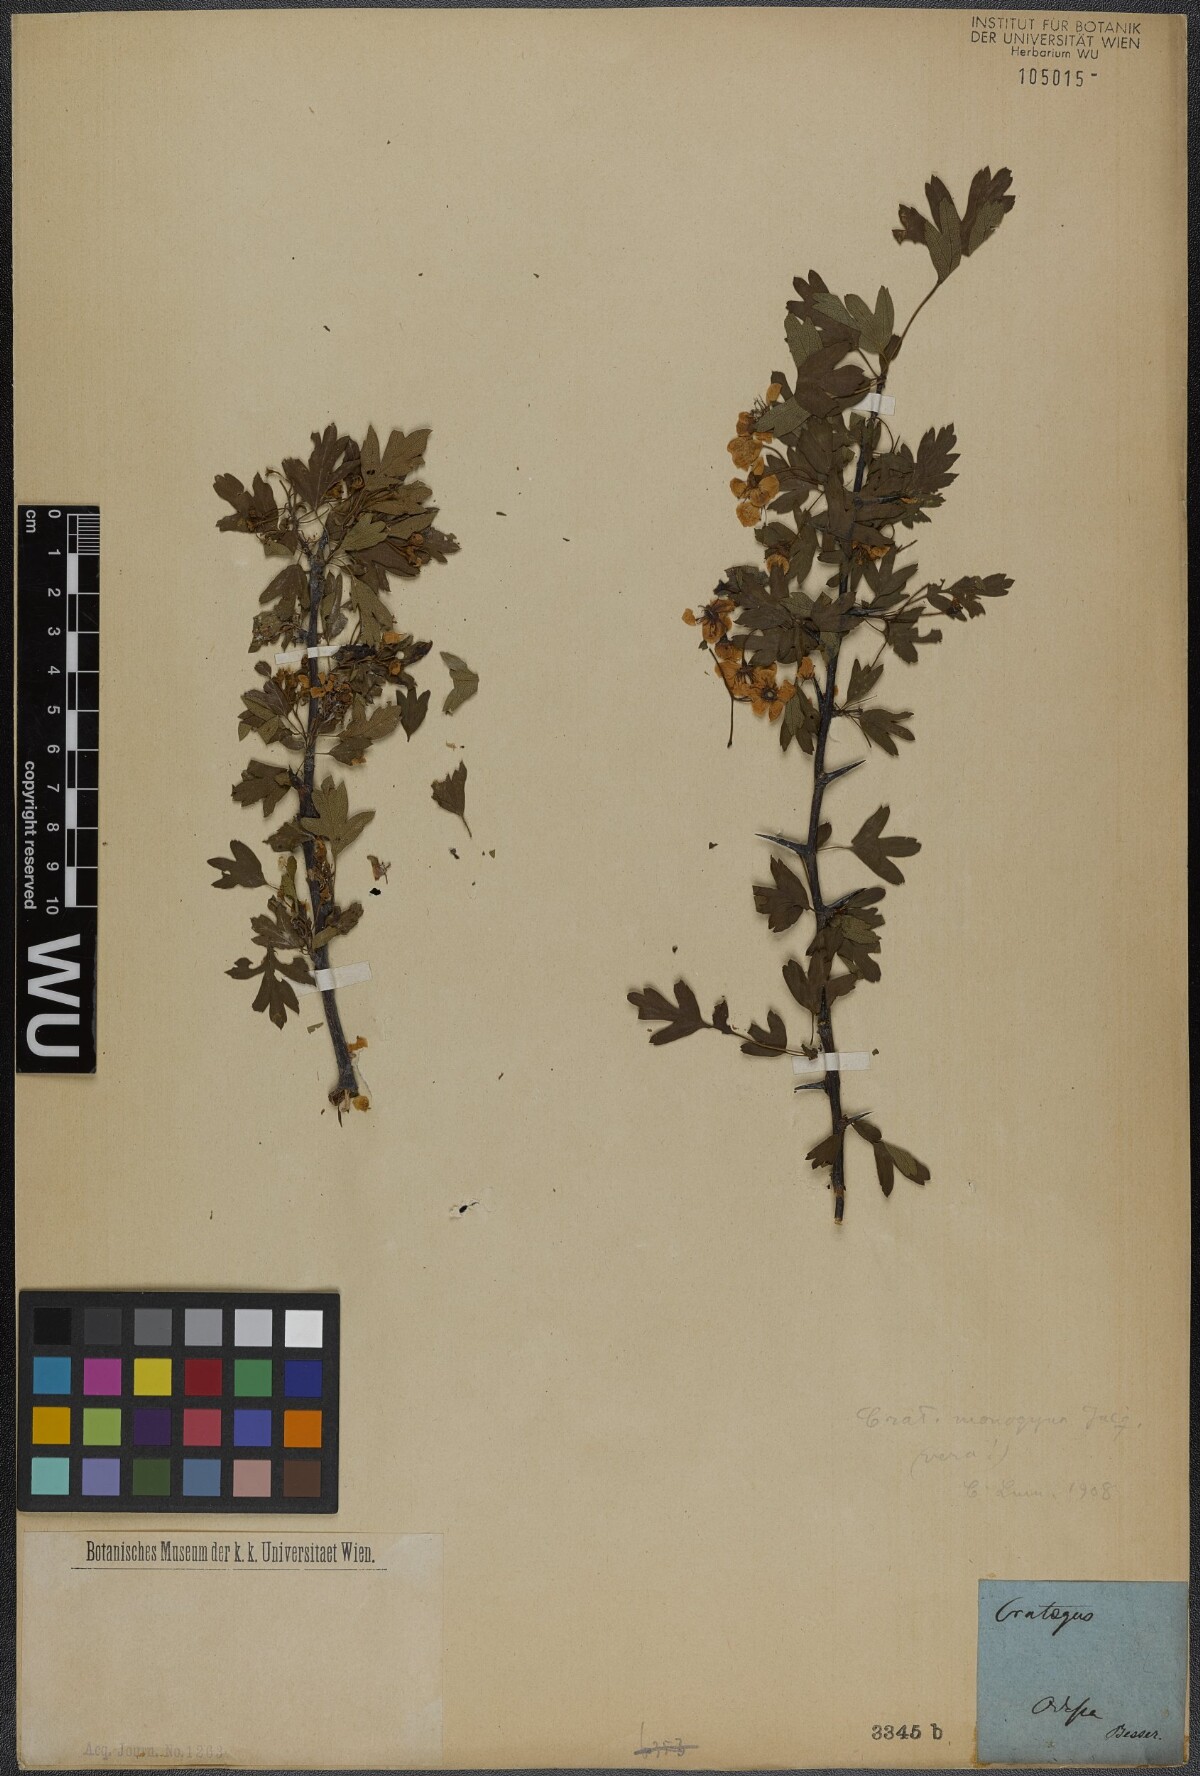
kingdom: Plantae
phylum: Tracheophyta
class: Magnoliopsida
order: Rosales
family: Rosaceae
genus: Crataegus
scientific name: Crataegus monogyna
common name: Hawthorn
